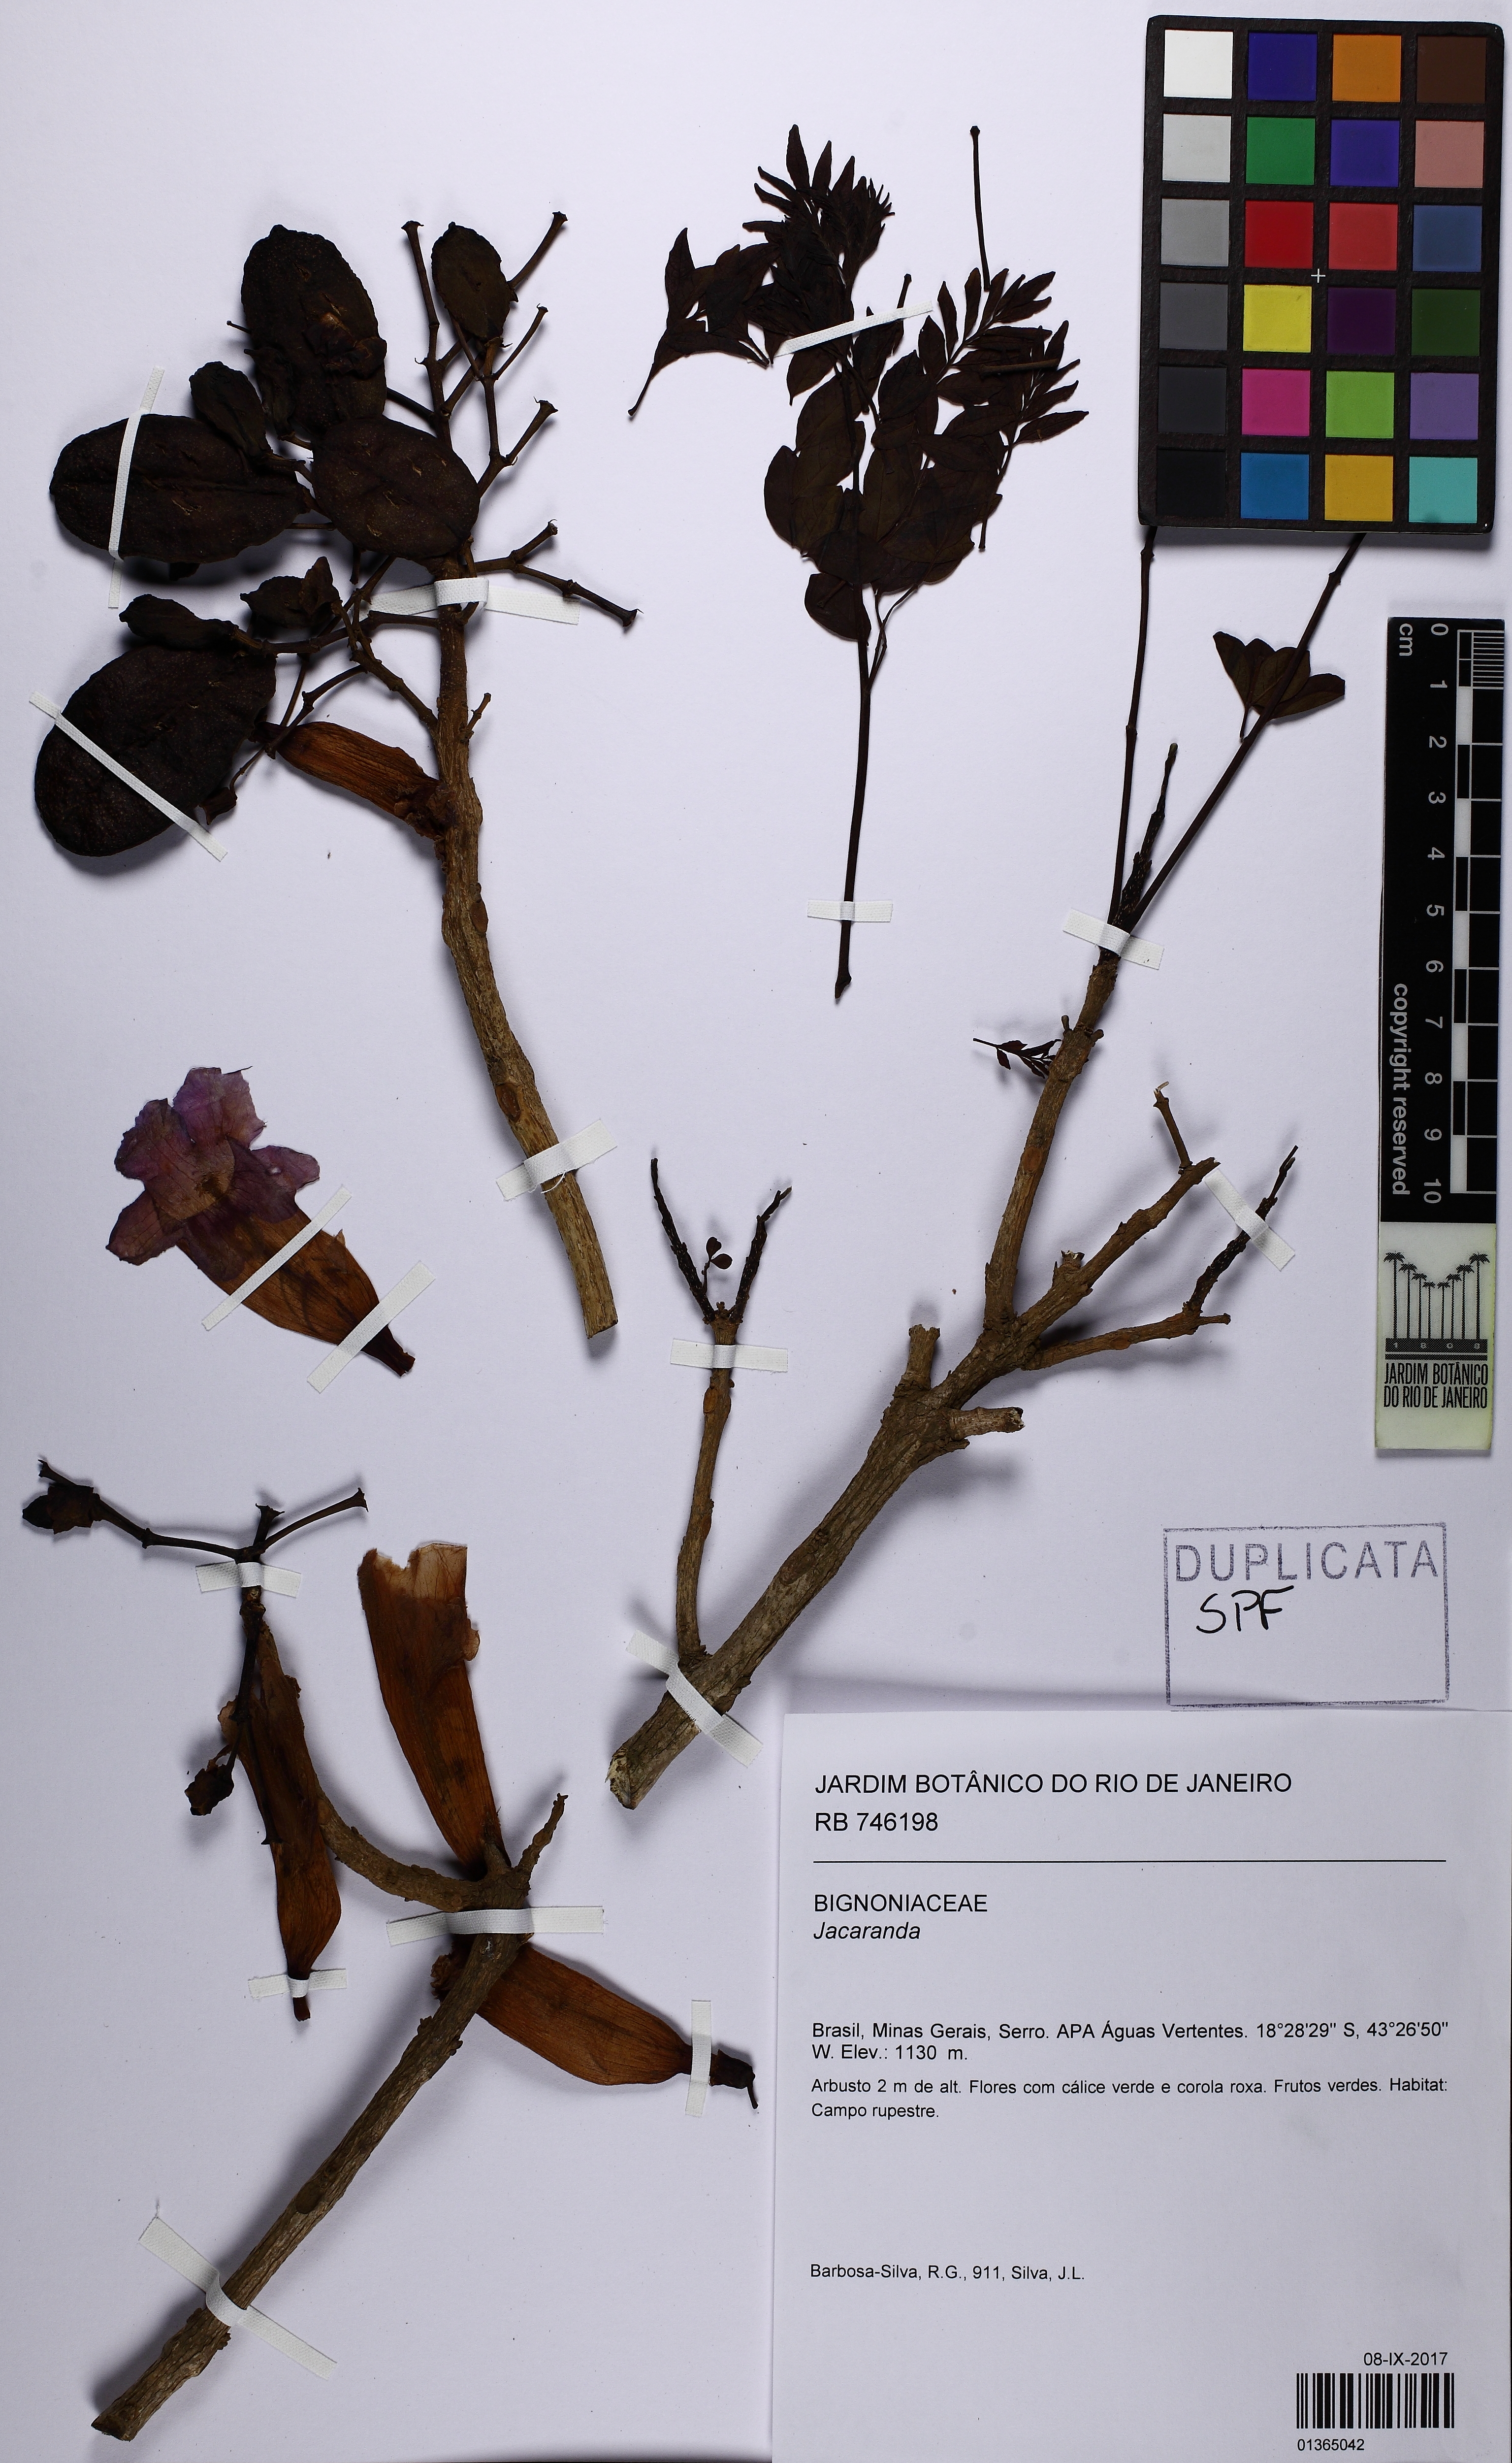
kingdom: Plantae
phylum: Tracheophyta
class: Magnoliopsida
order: Lamiales
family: Bignoniaceae
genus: Jacaranda
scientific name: Jacaranda
